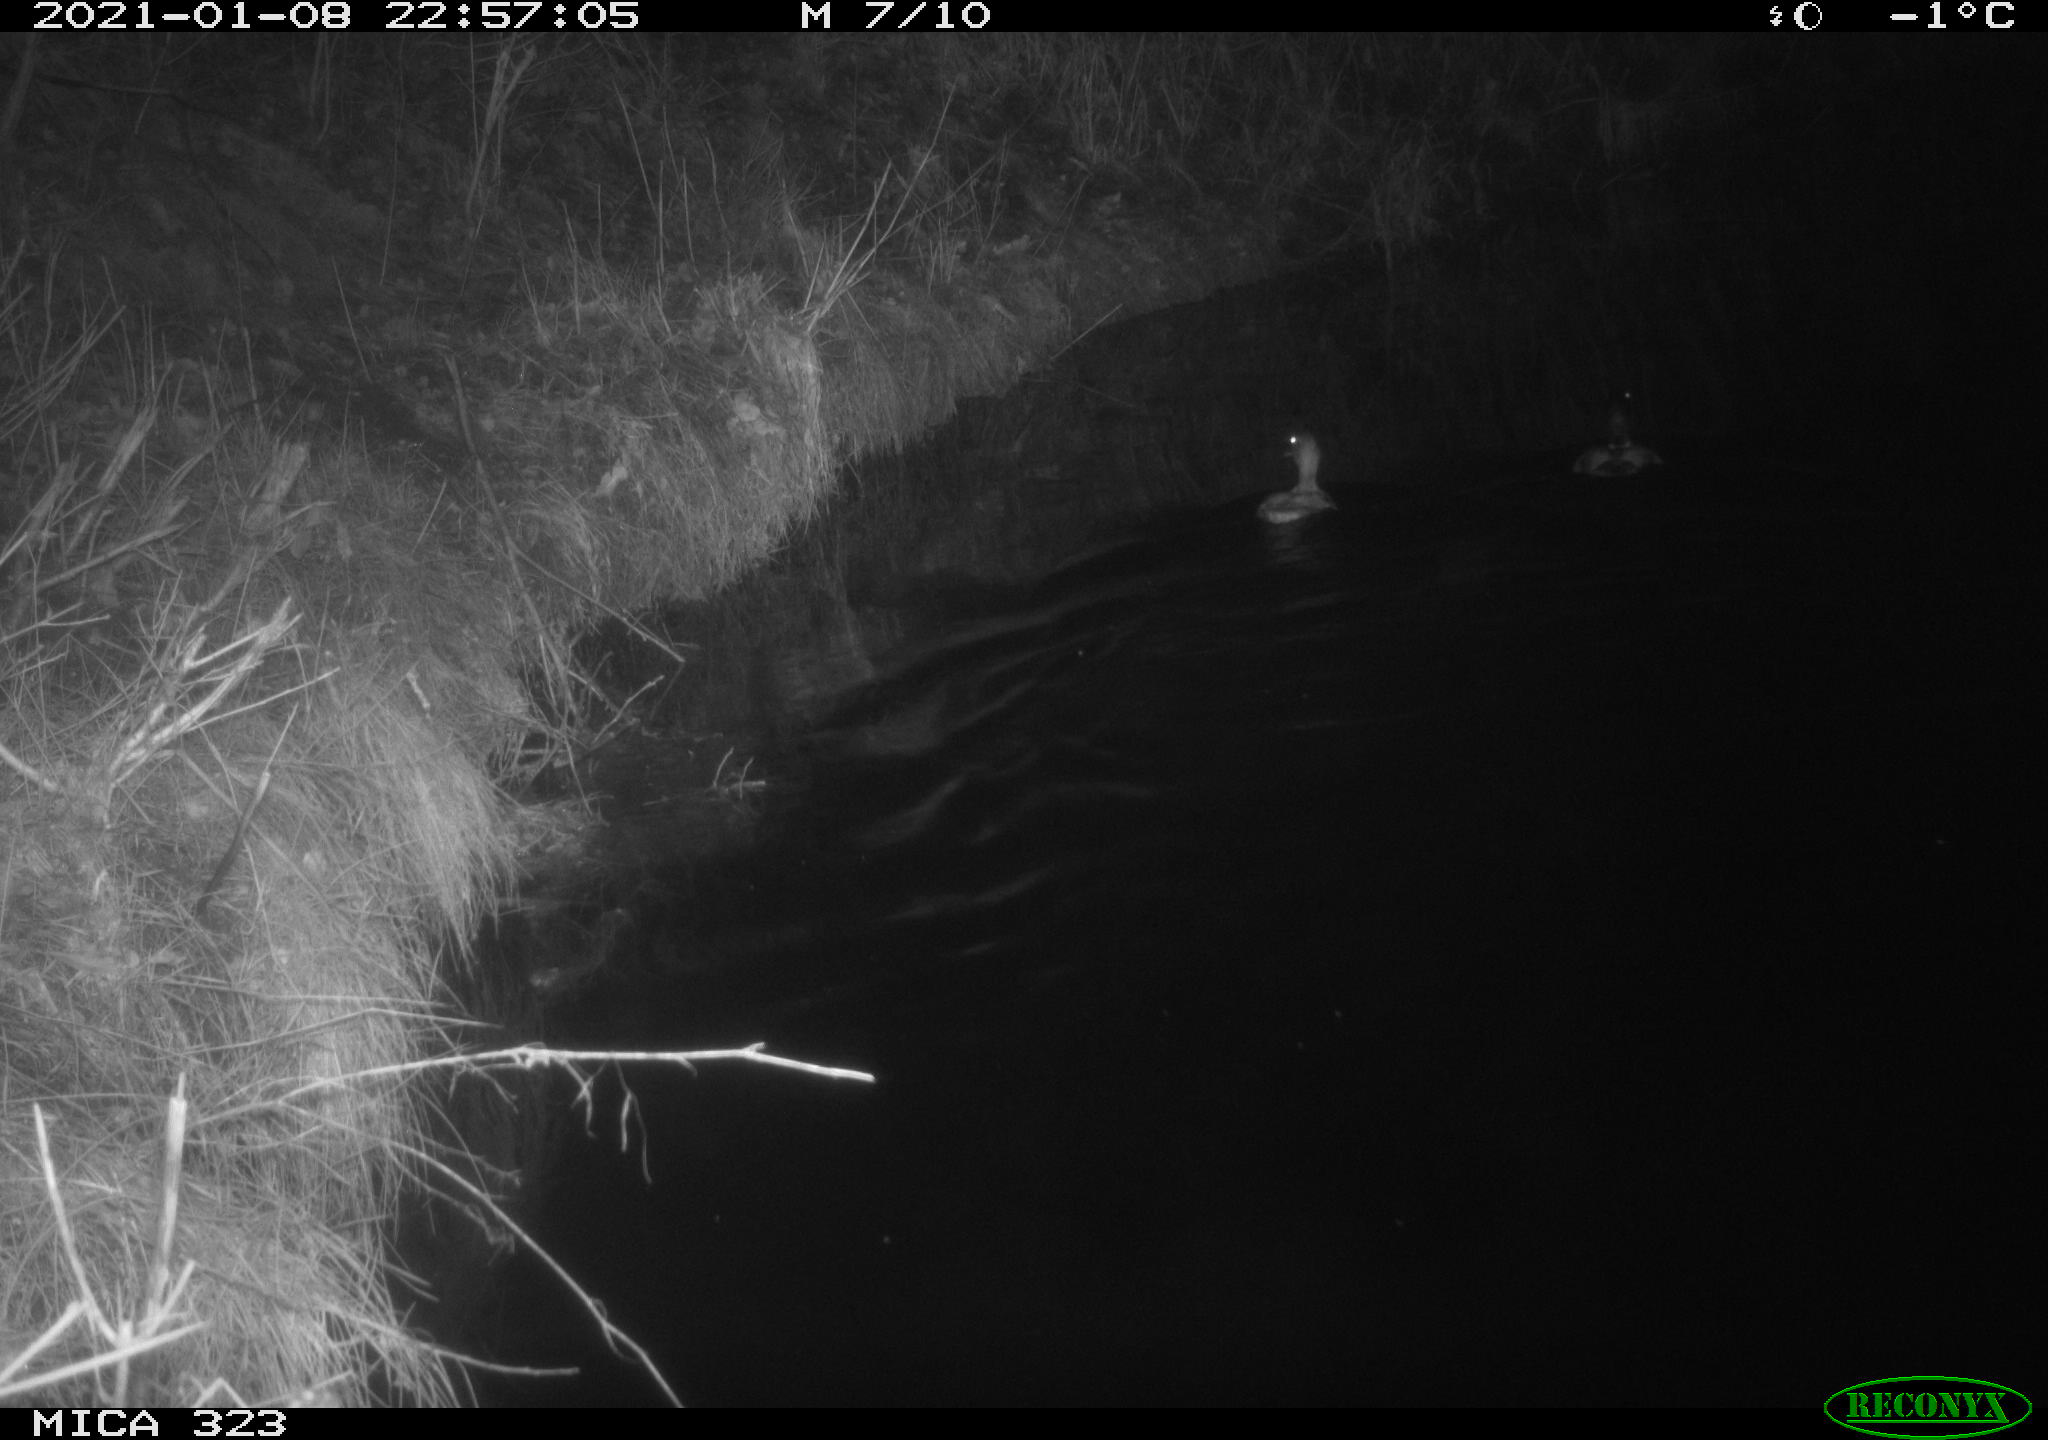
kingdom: Animalia
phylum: Chordata
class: Aves
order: Anseriformes
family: Anatidae
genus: Anas
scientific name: Anas platyrhynchos
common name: Mallard
